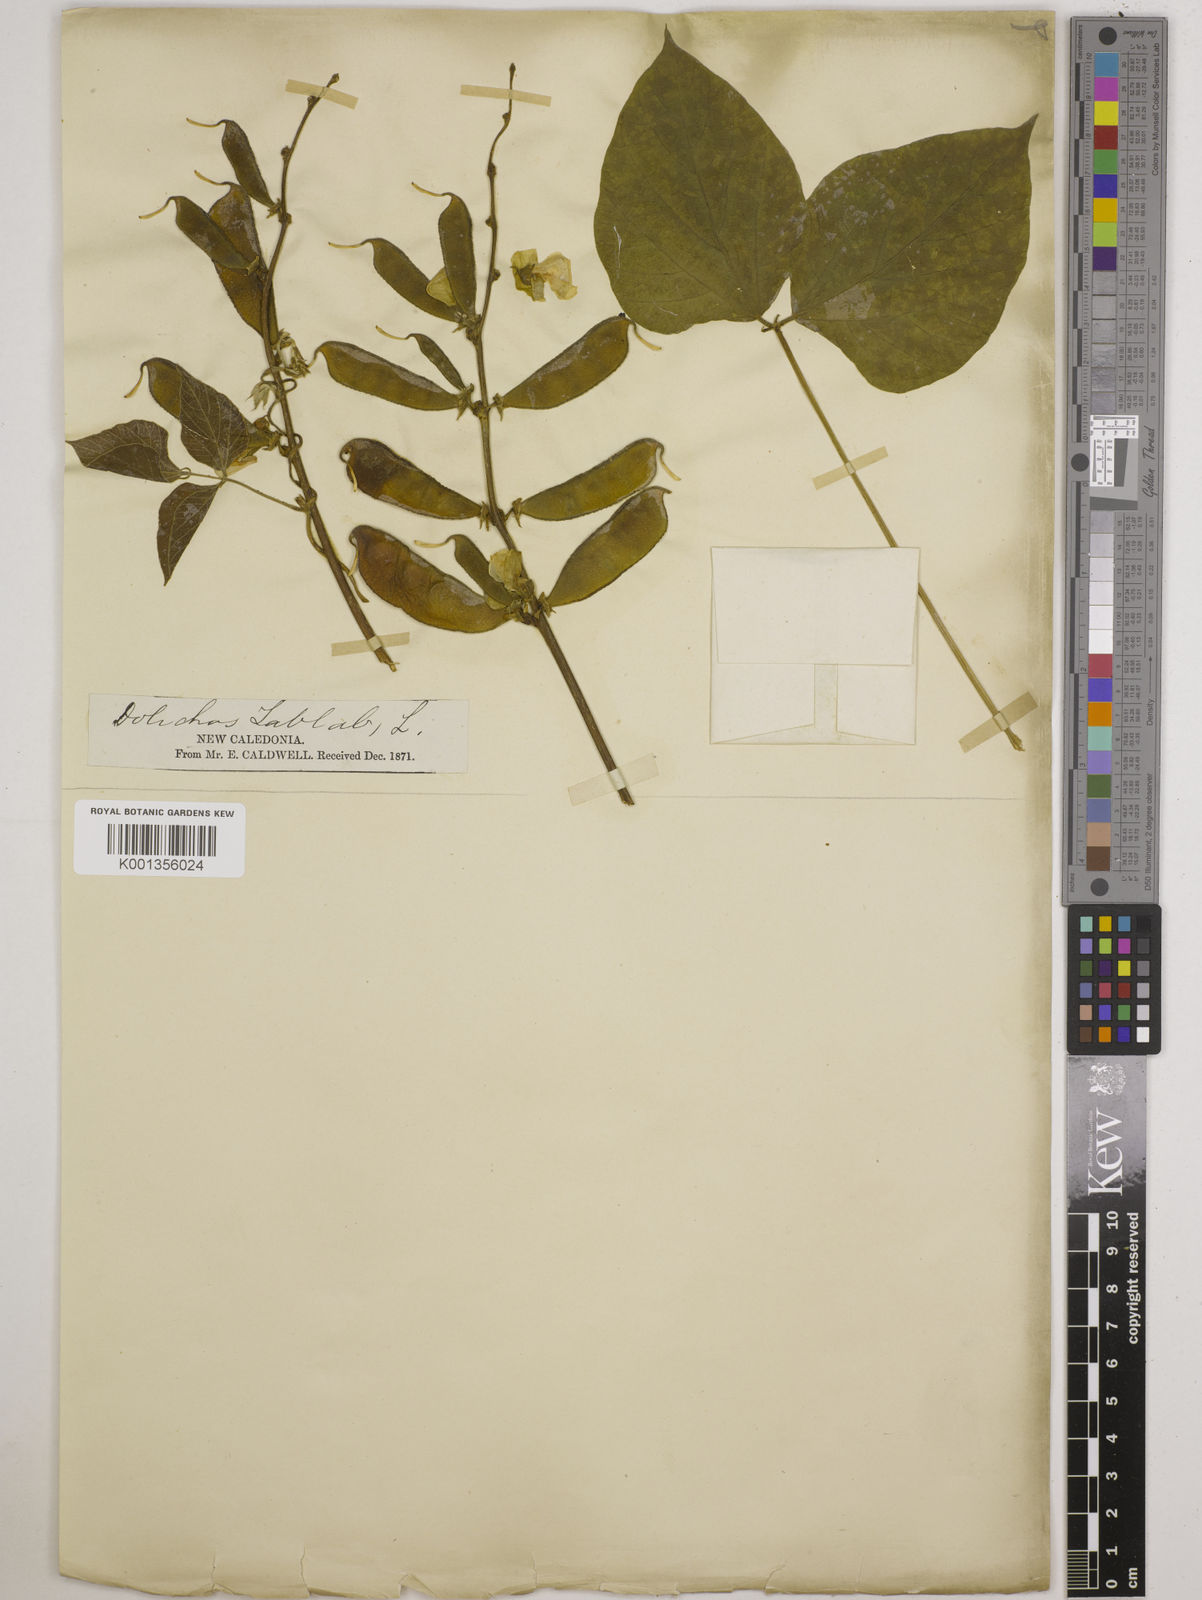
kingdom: Plantae
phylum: Tracheophyta
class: Magnoliopsida
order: Fabales
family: Fabaceae
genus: Lablab
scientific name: Lablab purpureus
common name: Lablab-bean
